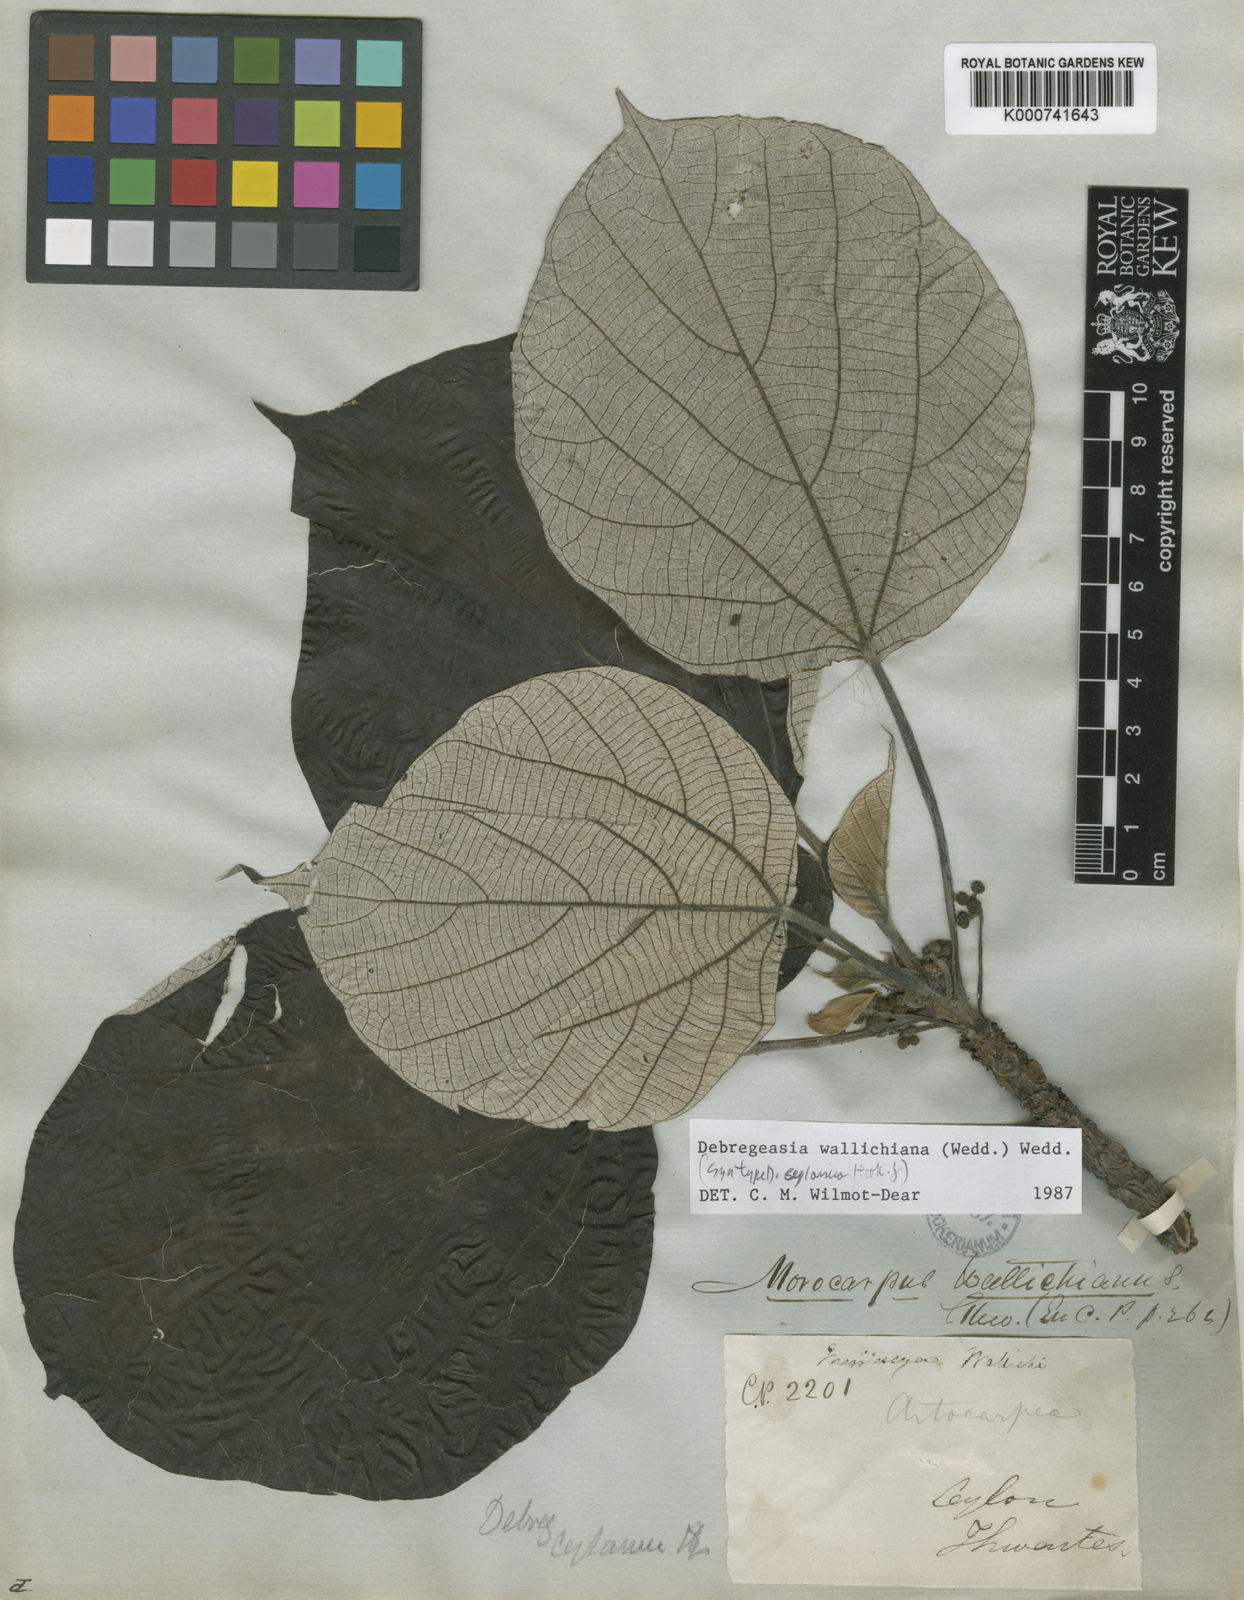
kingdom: Plantae
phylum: Tracheophyta
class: Magnoliopsida
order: Rosales
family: Urticaceae
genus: Debregeasia
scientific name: Debregeasia wallichiana
